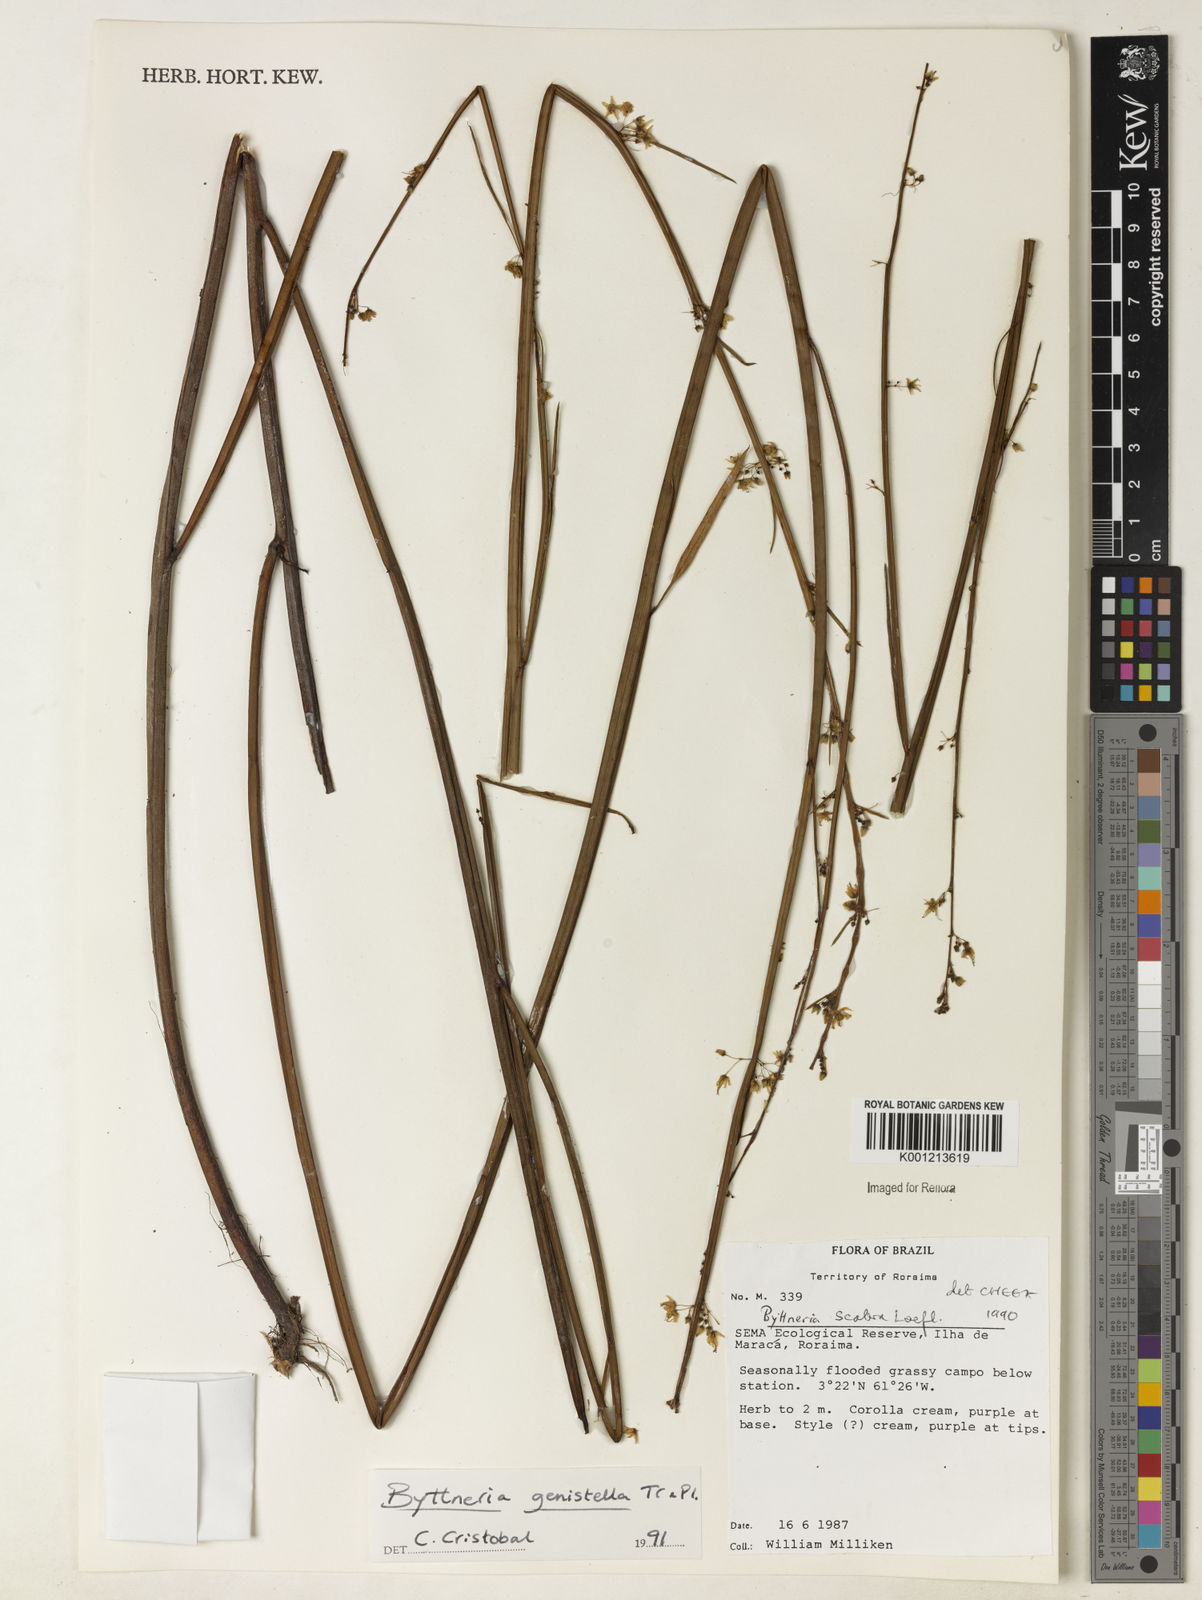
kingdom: Plantae
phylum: Tracheophyta
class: Magnoliopsida
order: Malvales
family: Malvaceae
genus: Byttneria
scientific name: Byttneria genistella
